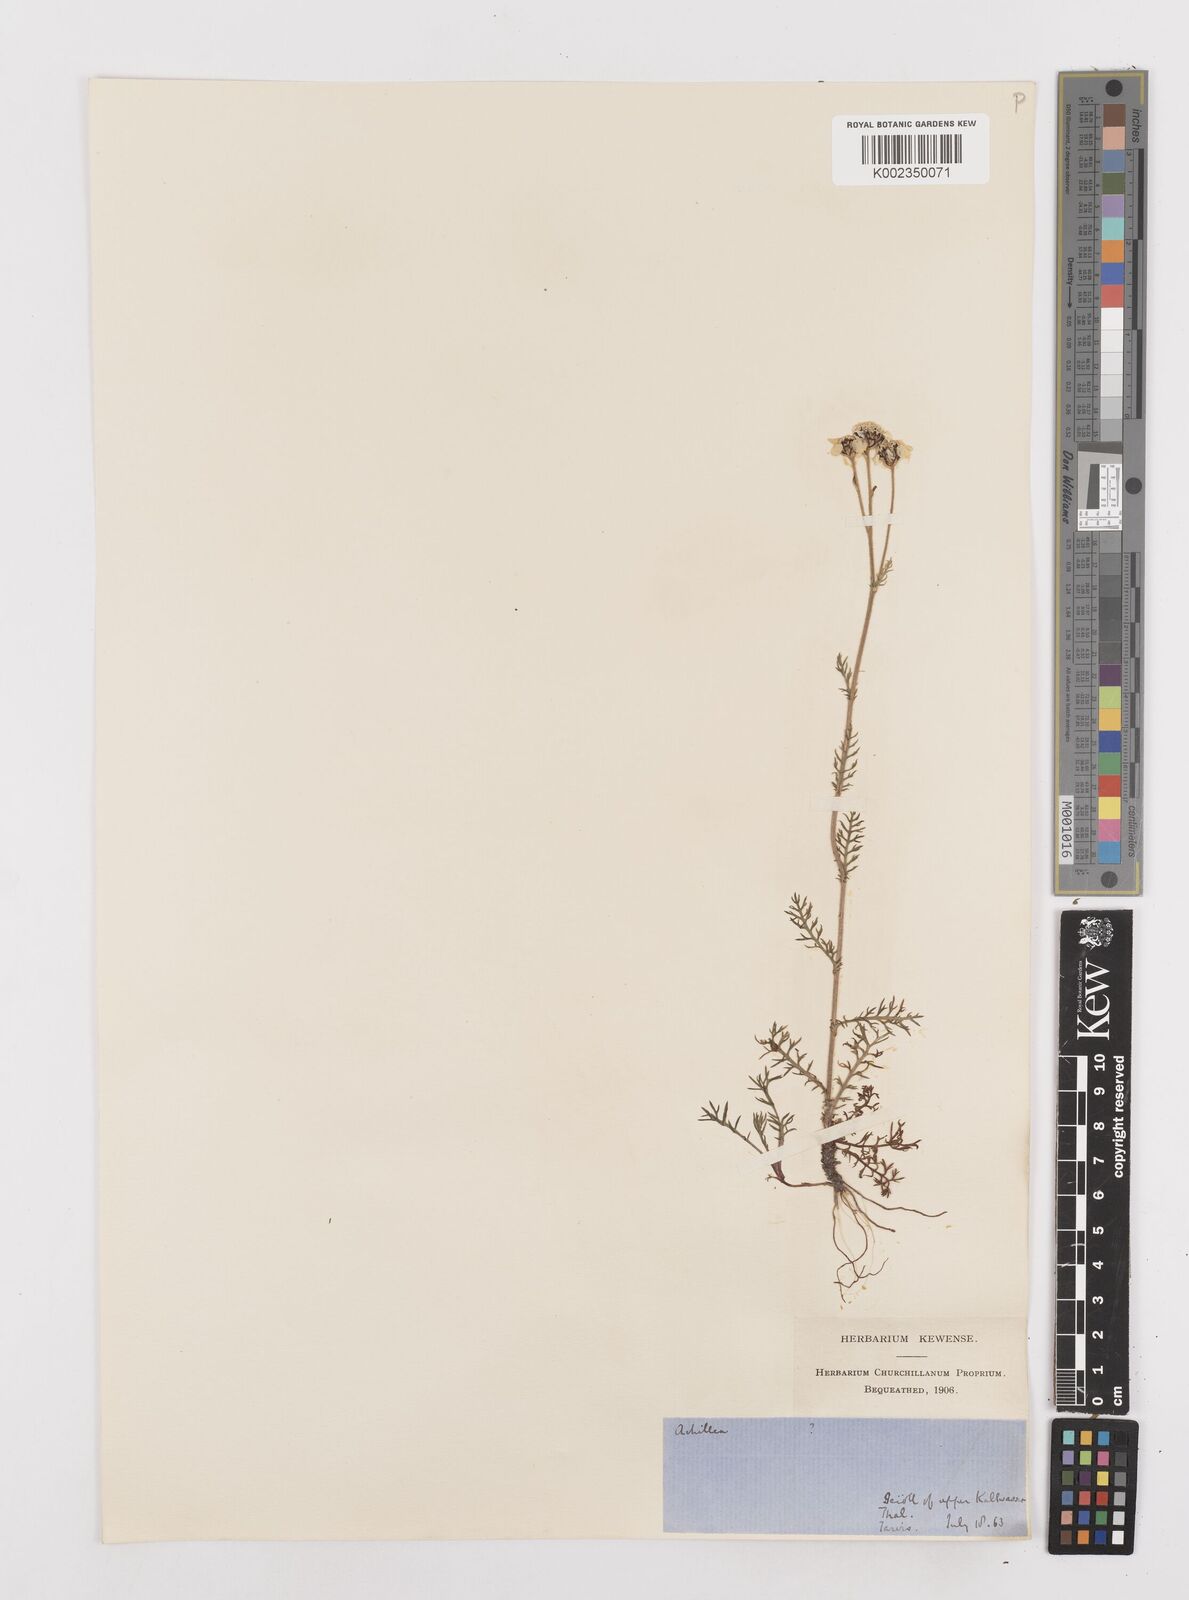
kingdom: Plantae
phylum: Tracheophyta
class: Magnoliopsida
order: Asterales
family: Asteraceae
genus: Achillea
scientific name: Achillea atrata
